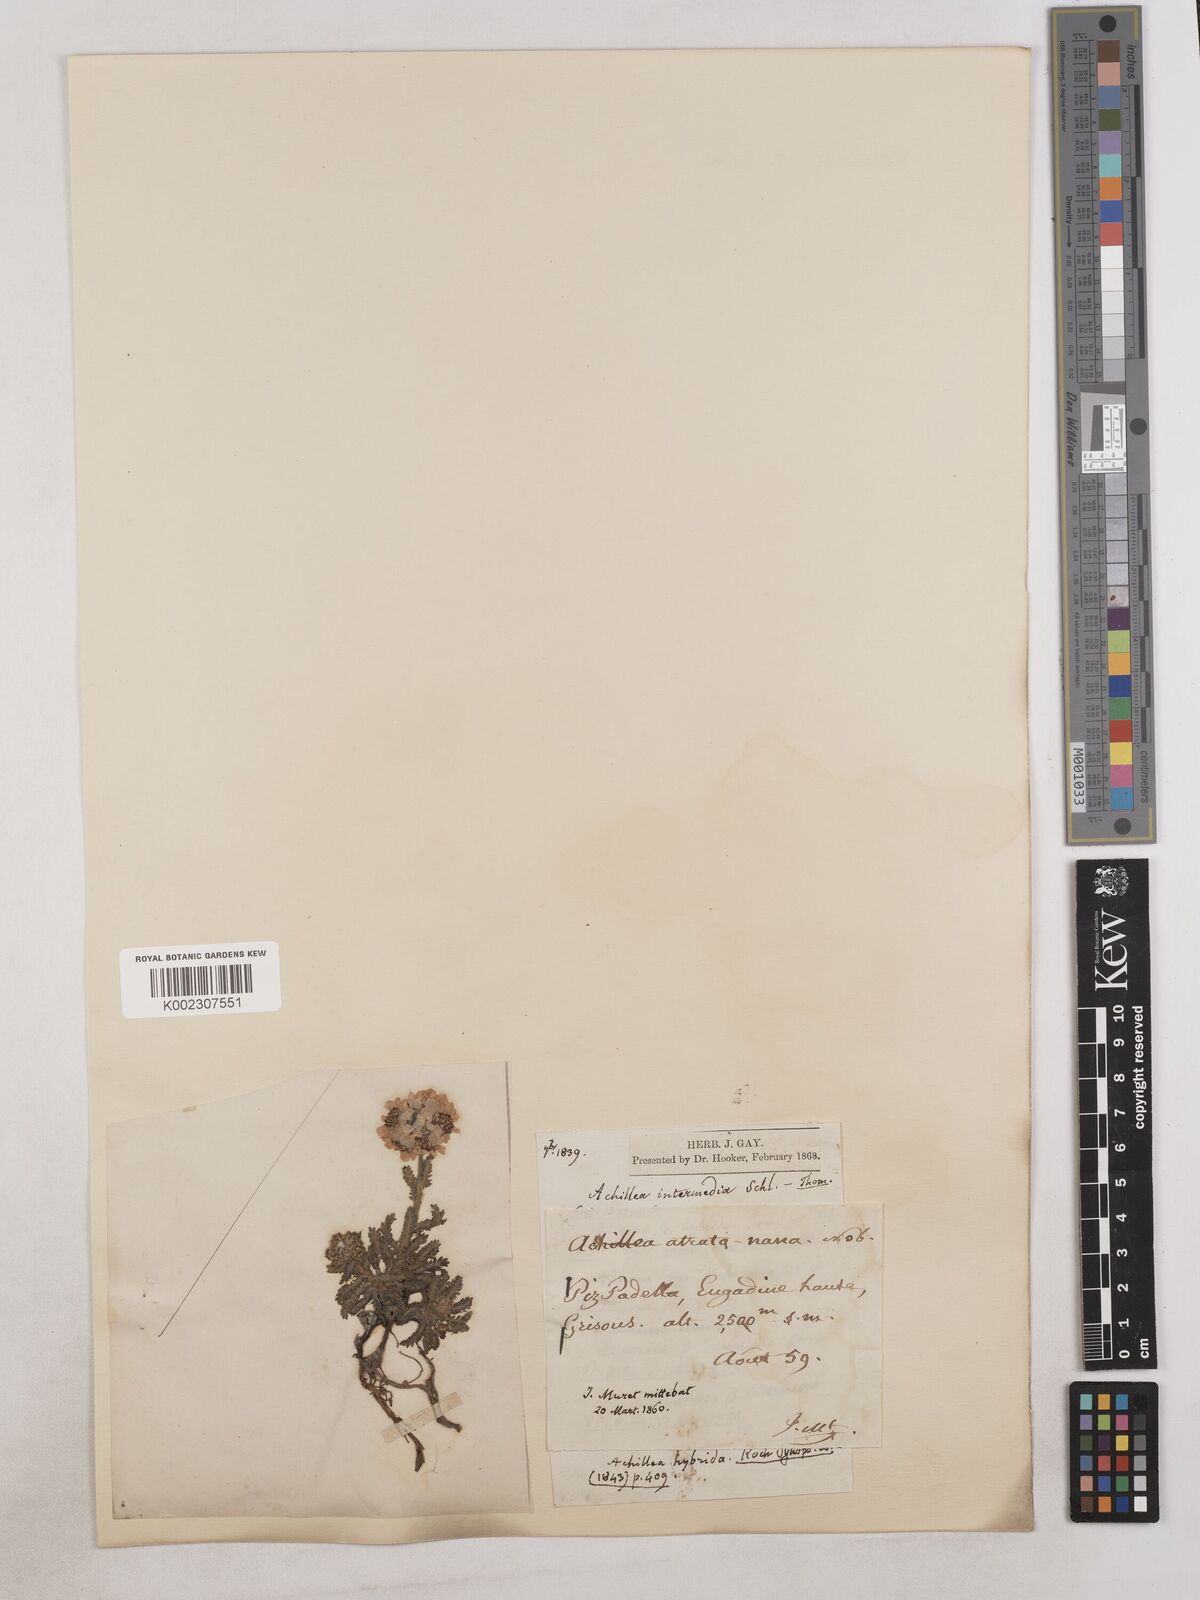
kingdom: Plantae
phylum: Tracheophyta
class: Magnoliopsida
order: Asterales
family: Asteraceae
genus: Achillea
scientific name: Achillea erba-rotta
